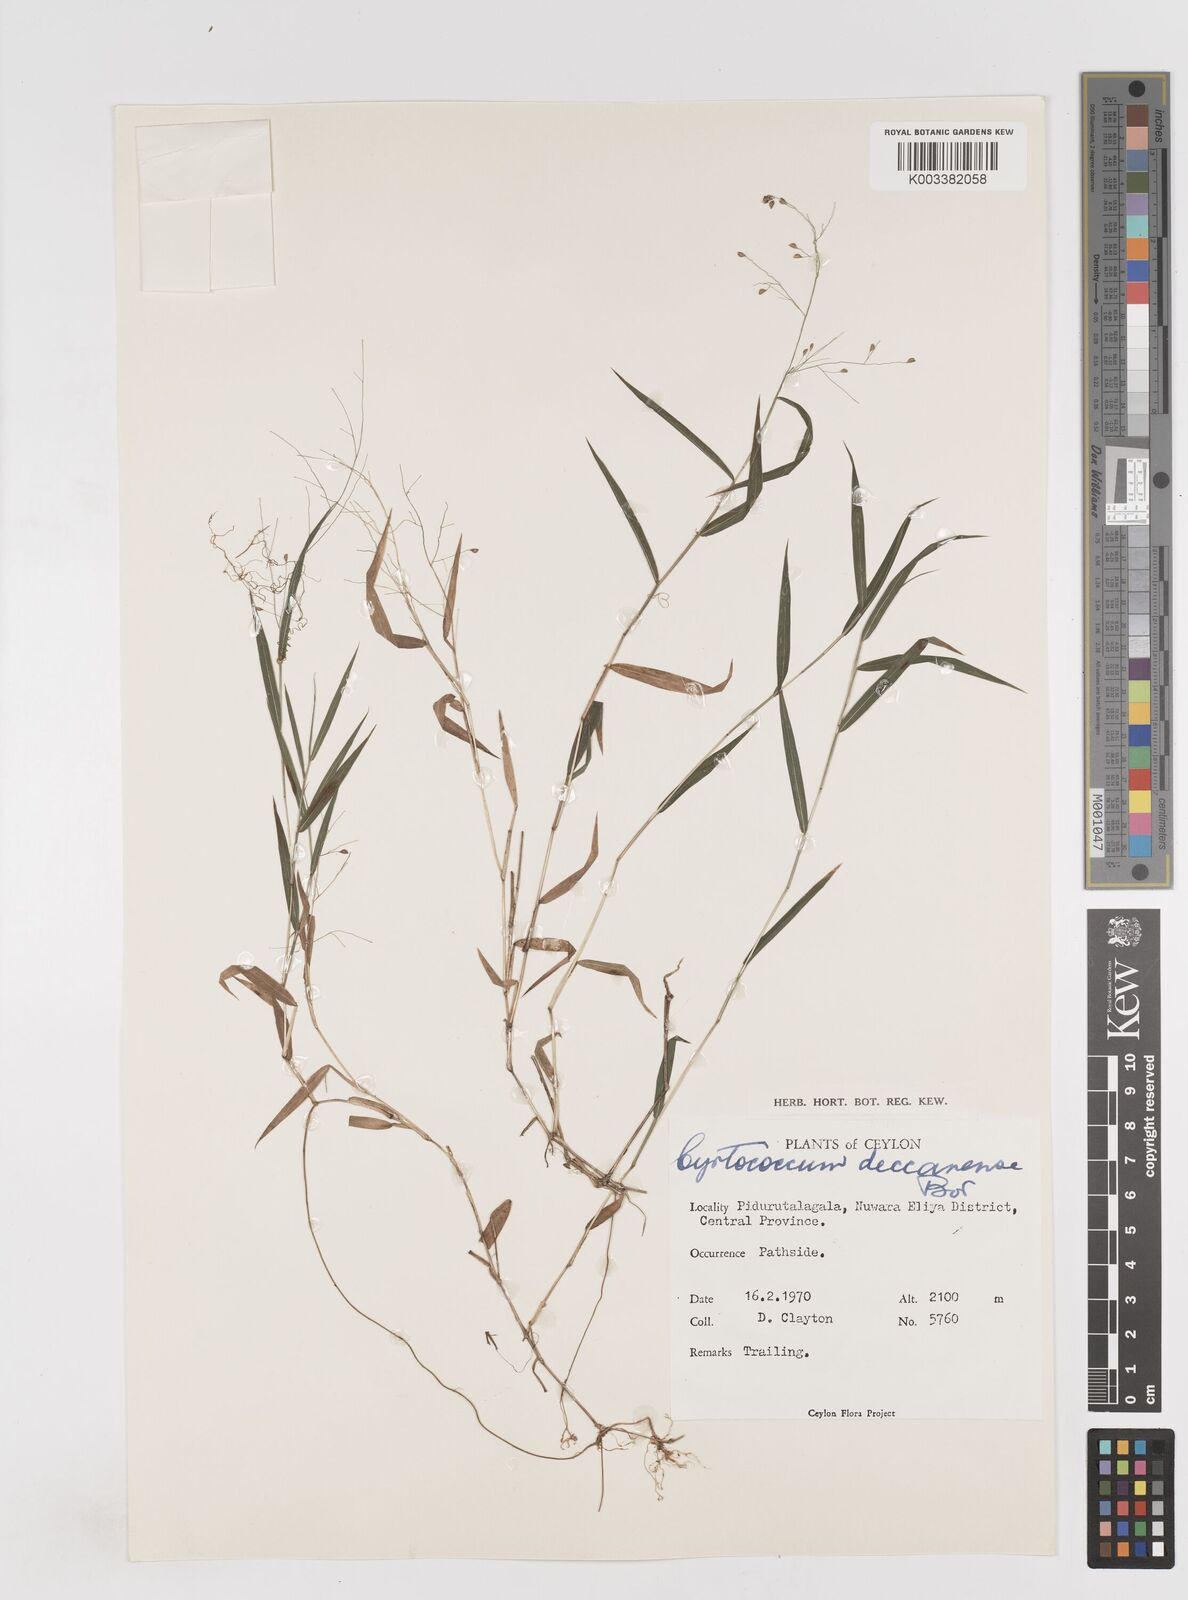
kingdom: Plantae
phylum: Tracheophyta
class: Liliopsida
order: Poales
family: Poaceae
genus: Cyrtococcum
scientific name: Cyrtococcum deccanense
